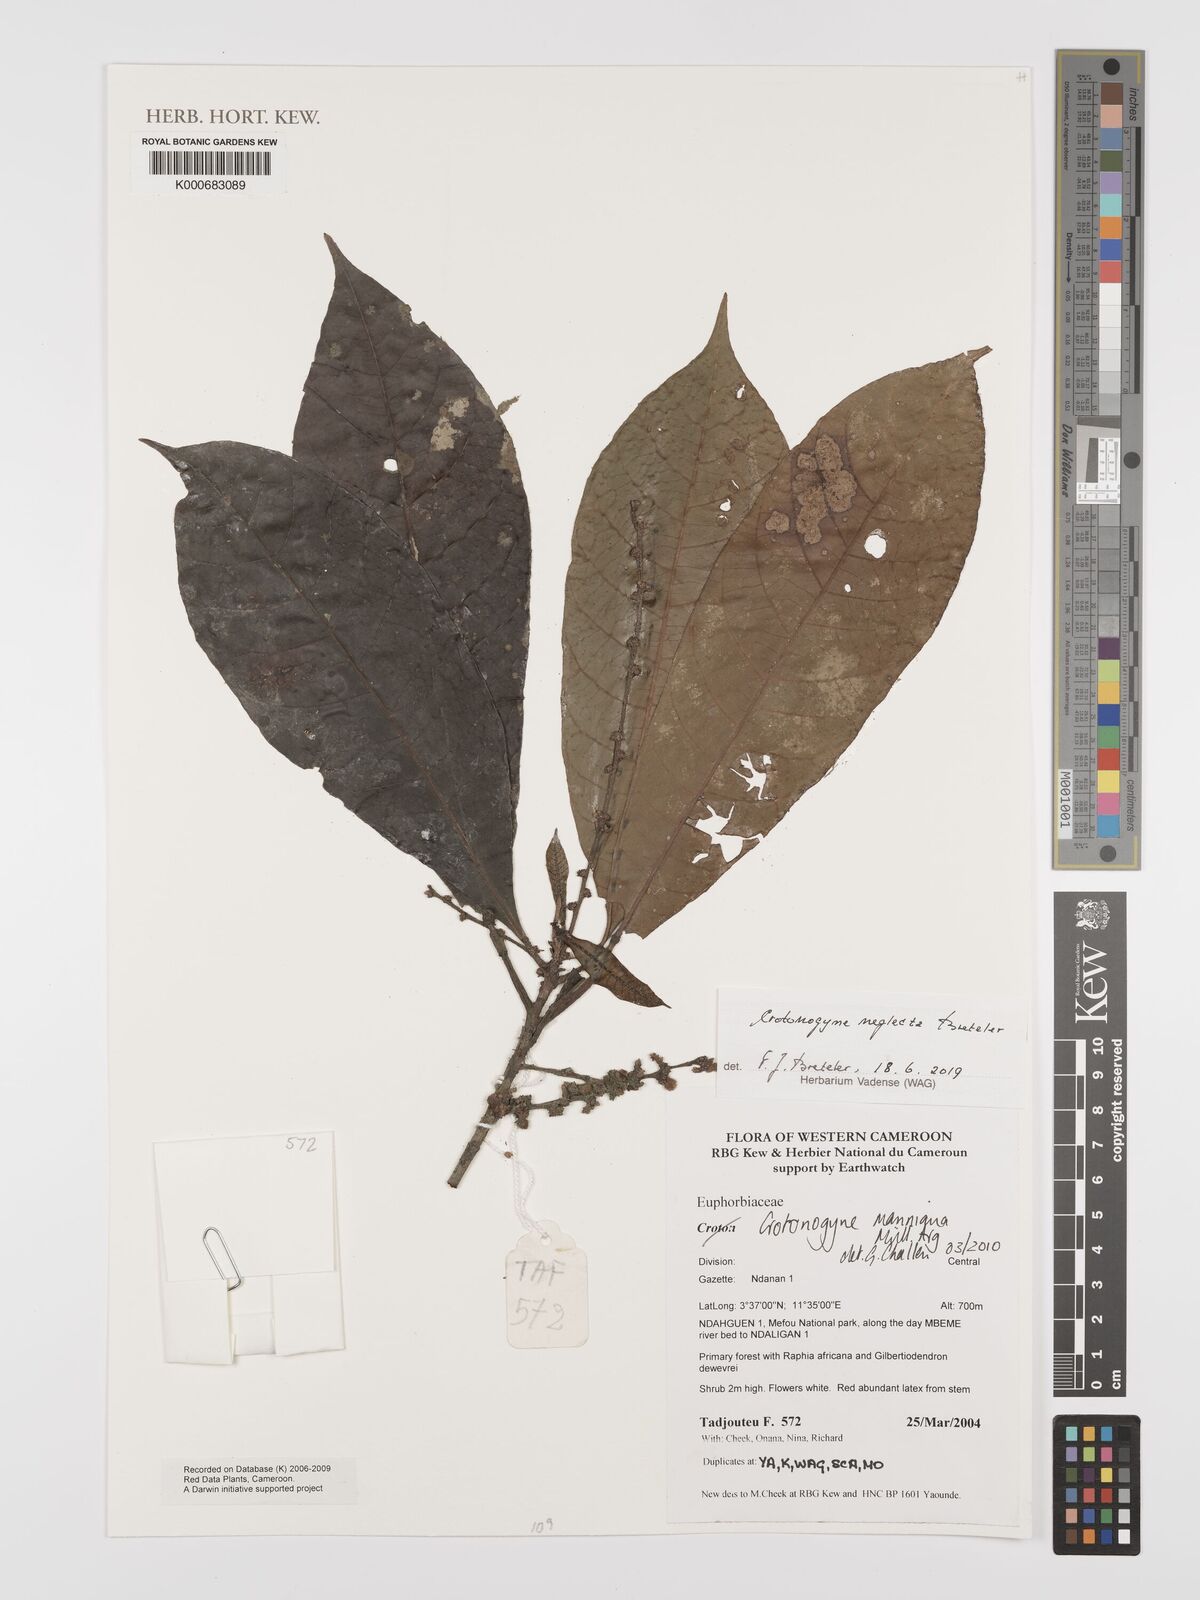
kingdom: Plantae
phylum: Tracheophyta
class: Magnoliopsida
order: Malpighiales
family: Euphorbiaceae
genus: Crotonogyne
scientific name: Crotonogyne neglecta
